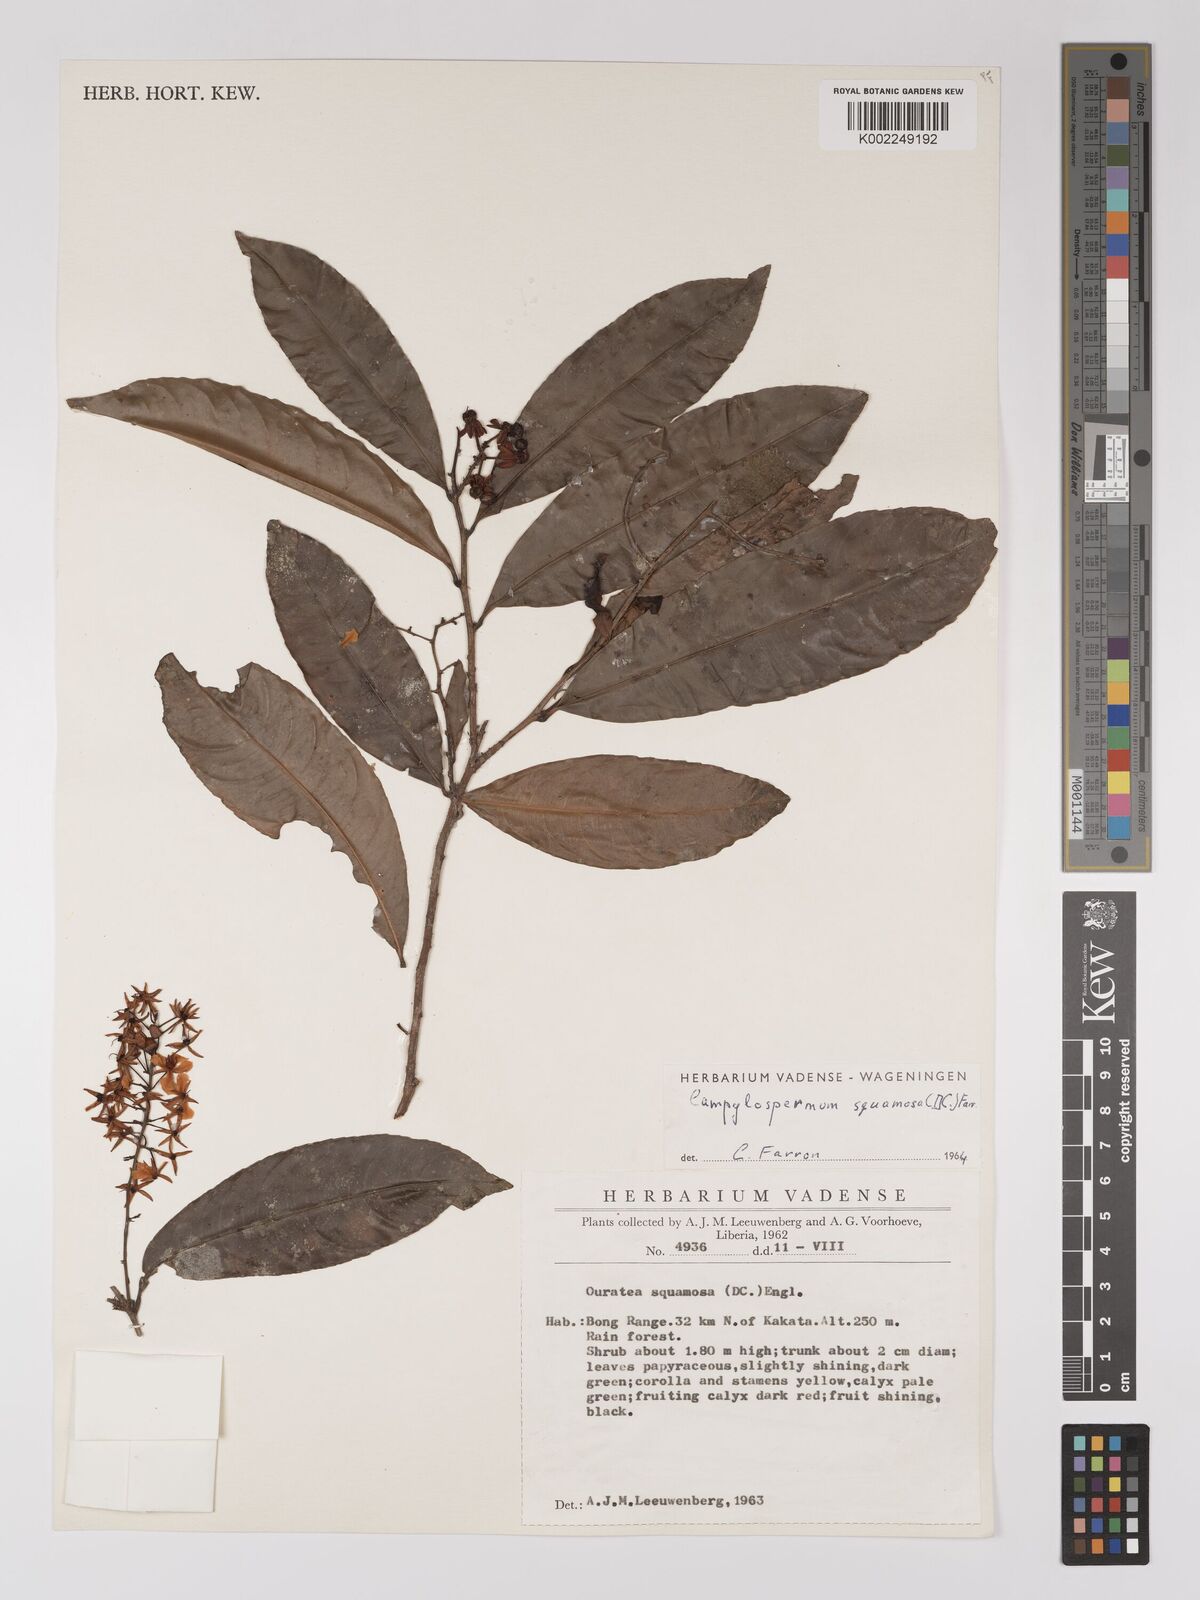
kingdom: Plantae
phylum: Tracheophyta
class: Magnoliopsida
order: Malpighiales
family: Ochnaceae
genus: Campylospermum
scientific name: Campylospermum squamosum
